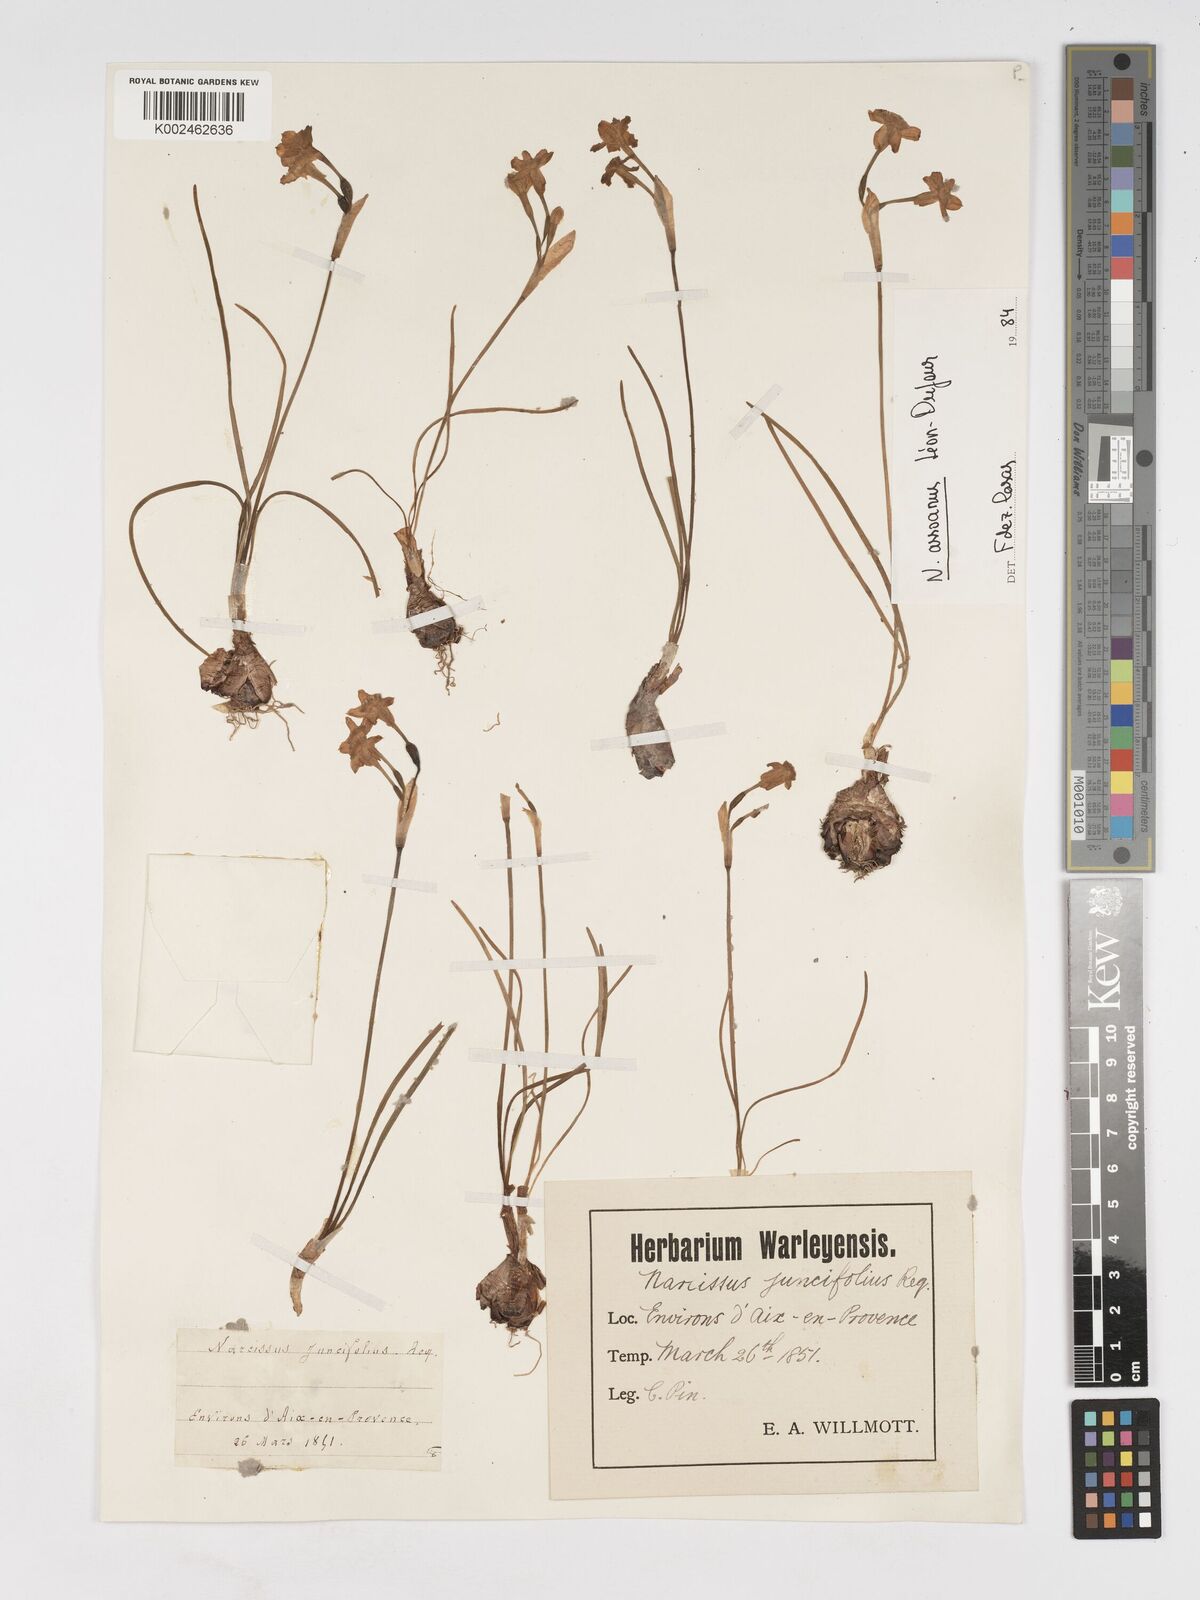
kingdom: Plantae
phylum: Tracheophyta
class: Liliopsida
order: Asparagales
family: Amaryllidaceae
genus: Narcissus
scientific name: Narcissus assoanus
